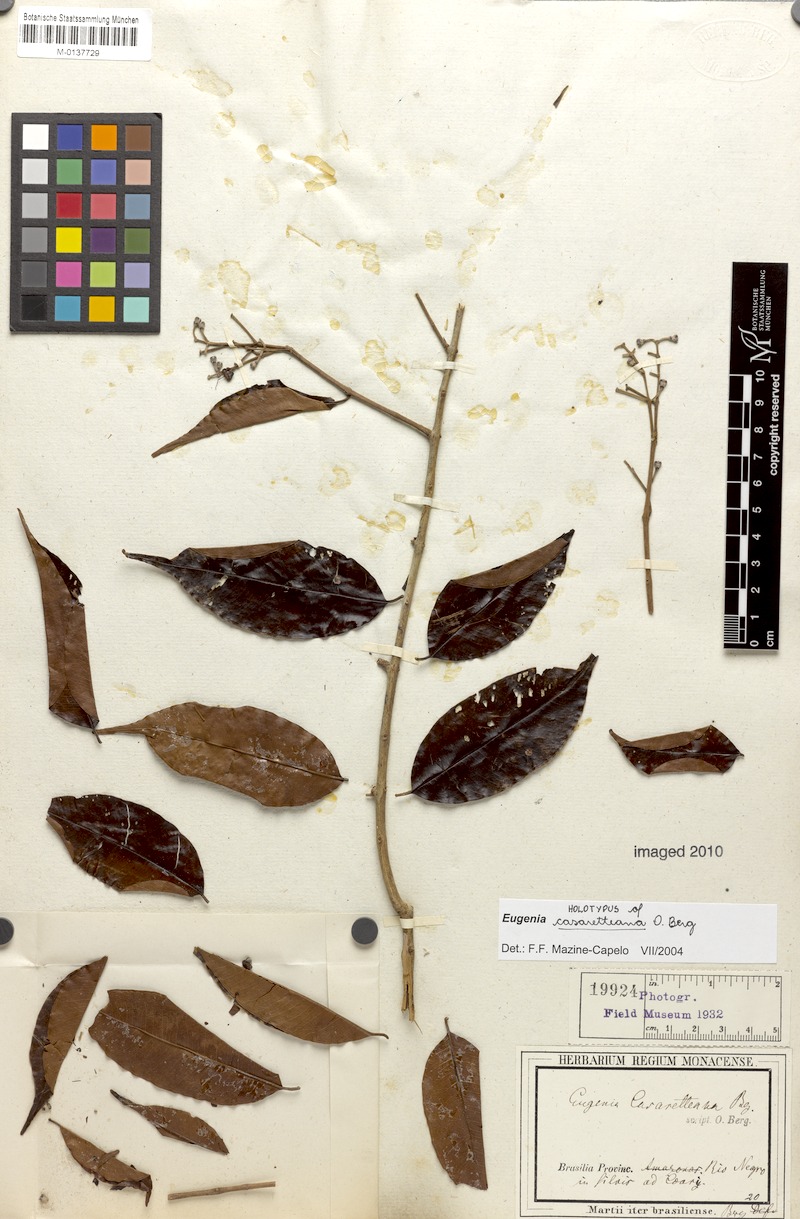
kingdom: Plantae
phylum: Tracheophyta
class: Magnoliopsida
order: Myrtales
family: Myrtaceae
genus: Eugenia
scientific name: Eugenia patens
